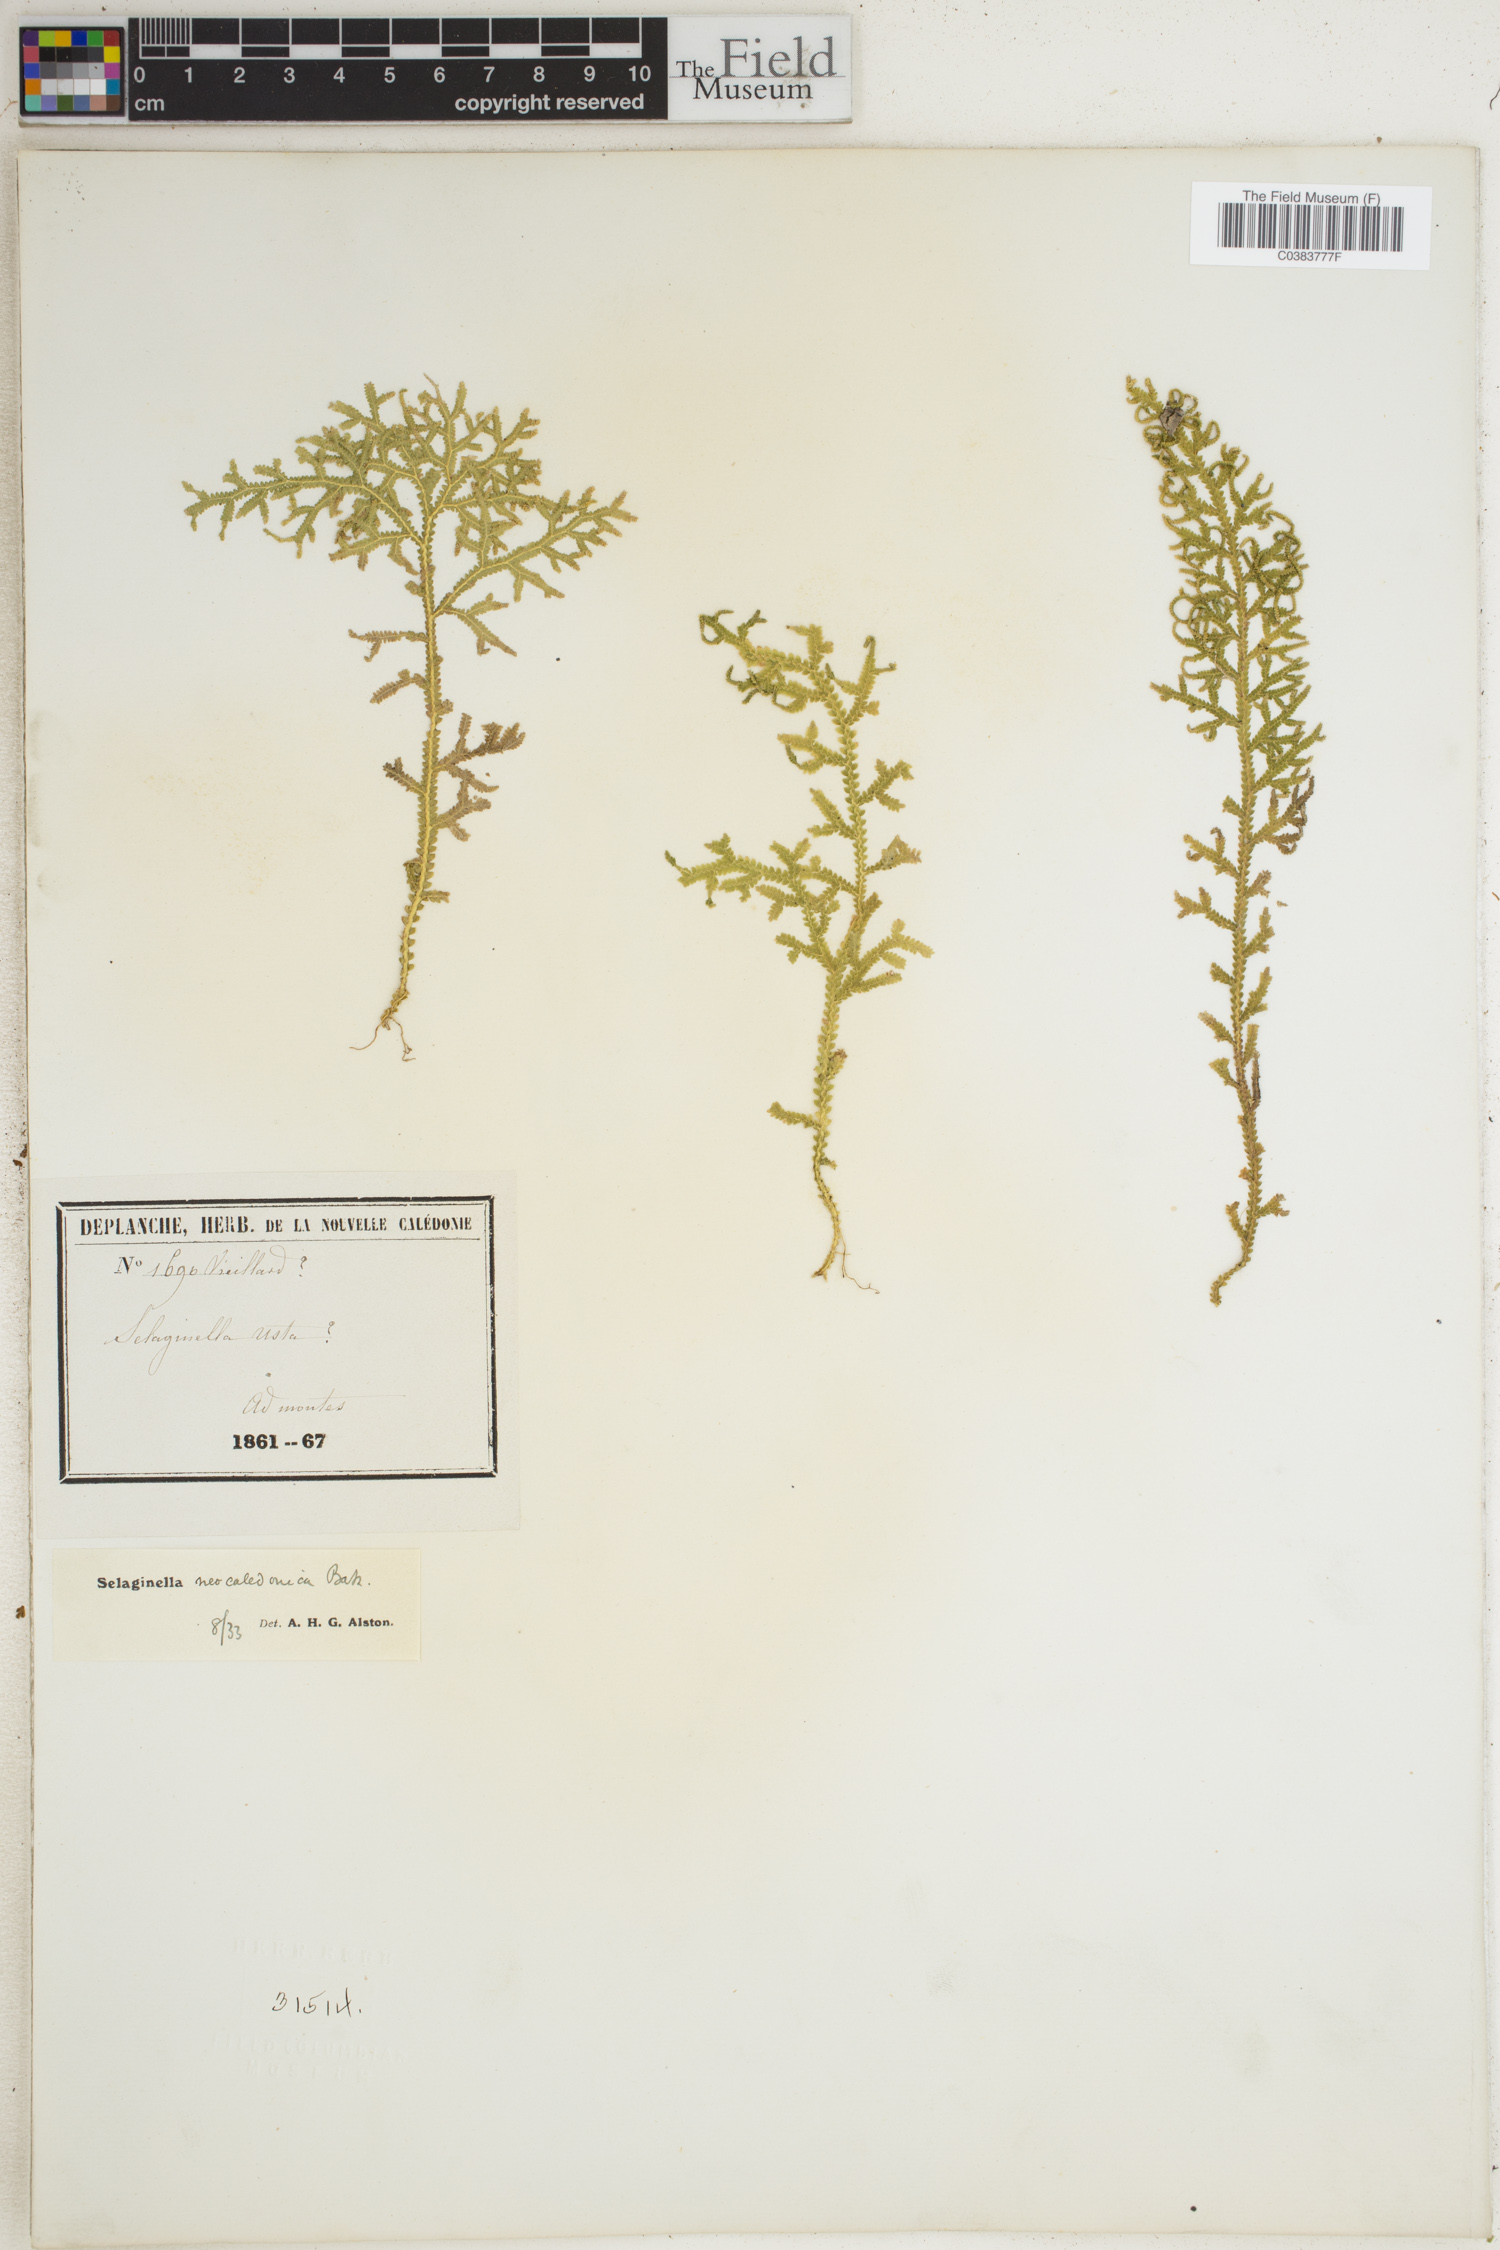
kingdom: Plantae
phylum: Tracheophyta
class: Lycopodiopsida
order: Selaginellales
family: Selaginellaceae
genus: Selaginella
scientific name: Selaginella neocaledonica
